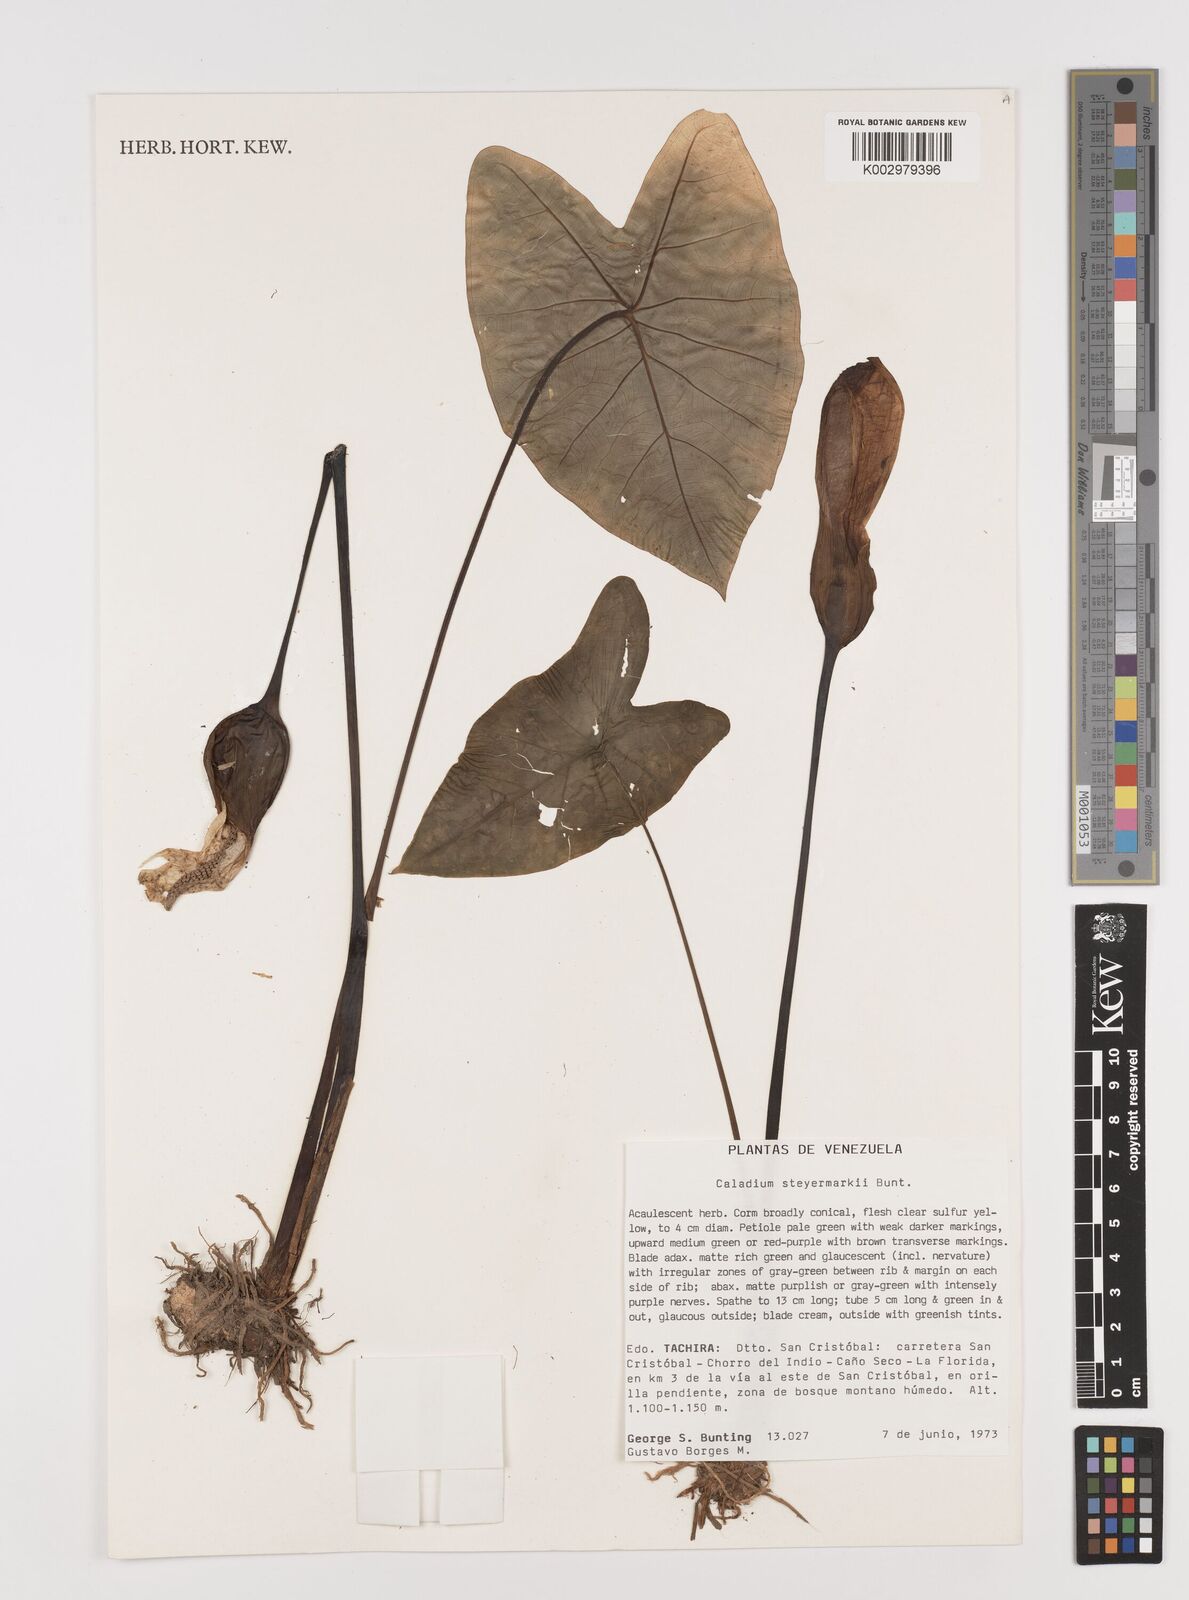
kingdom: Plantae
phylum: Tracheophyta
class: Liliopsida
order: Alismatales
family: Araceae
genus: Caladium
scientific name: Caladium steyermarkii
